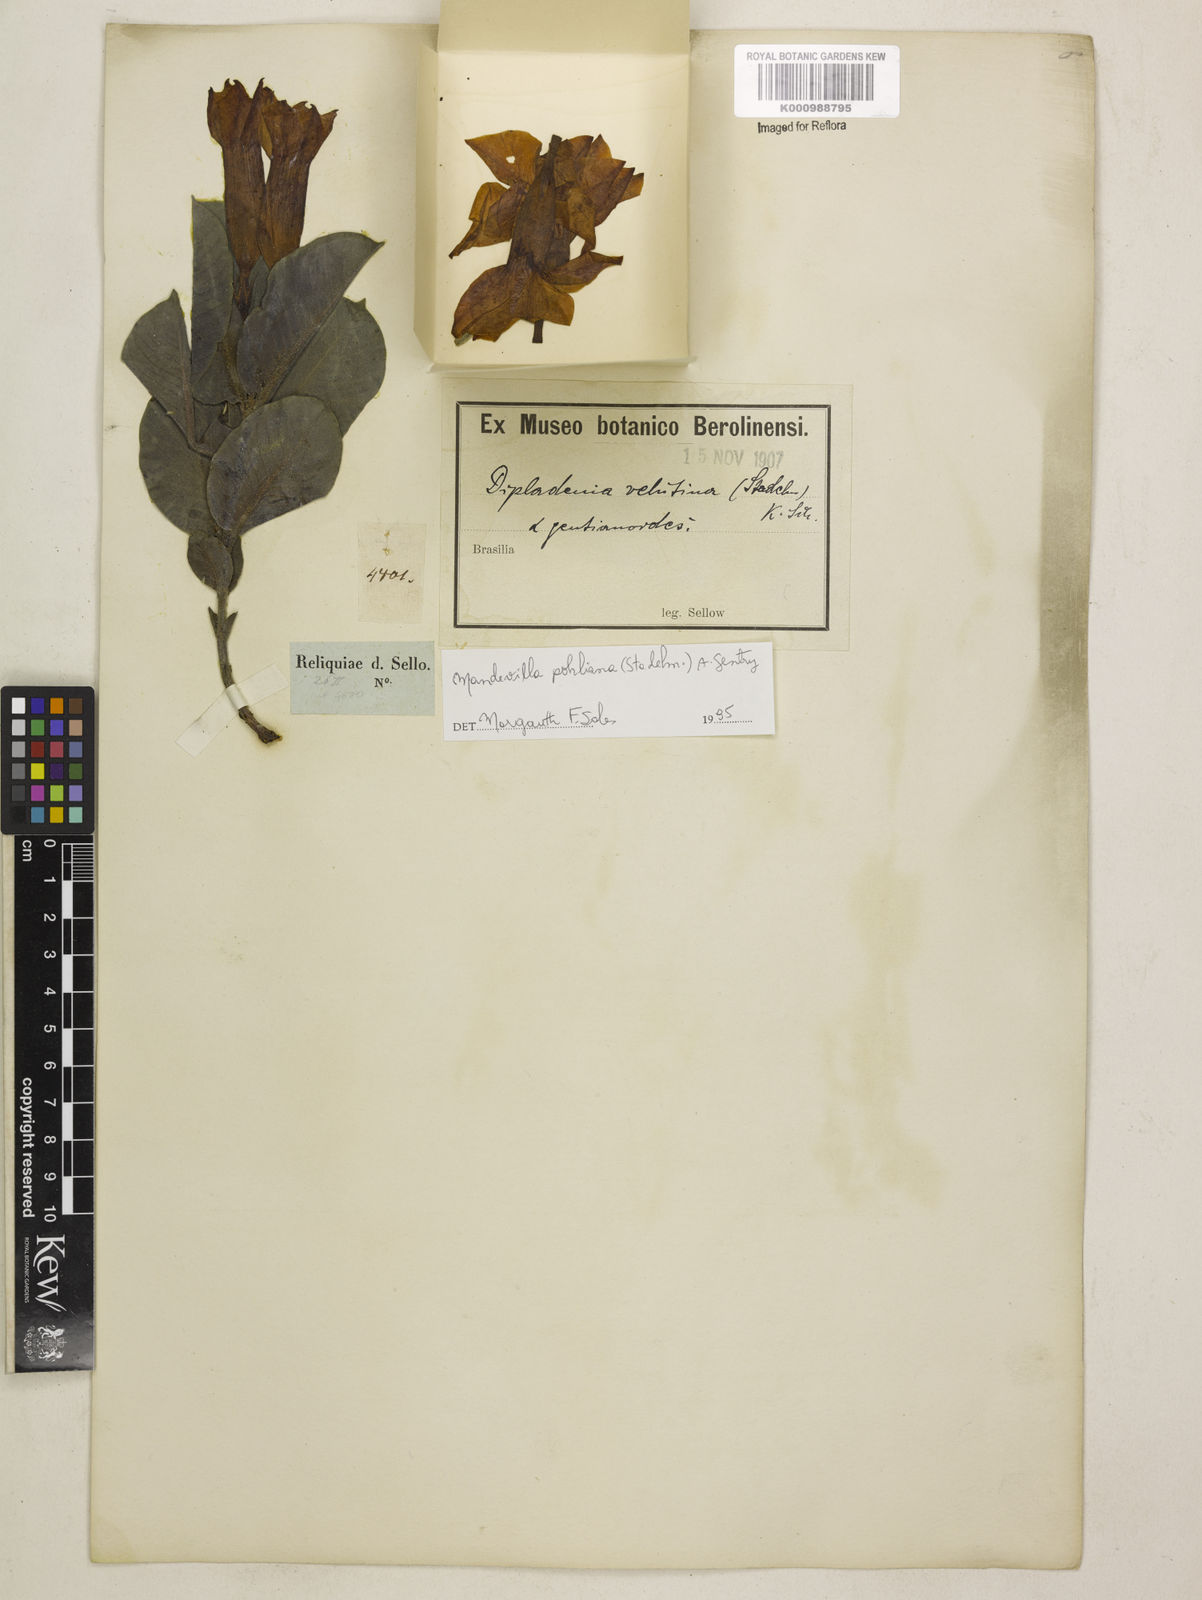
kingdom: Plantae
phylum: Tracheophyta
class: Magnoliopsida
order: Gentianales
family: Apocynaceae
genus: Mandevilla
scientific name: Mandevilla pohliana
